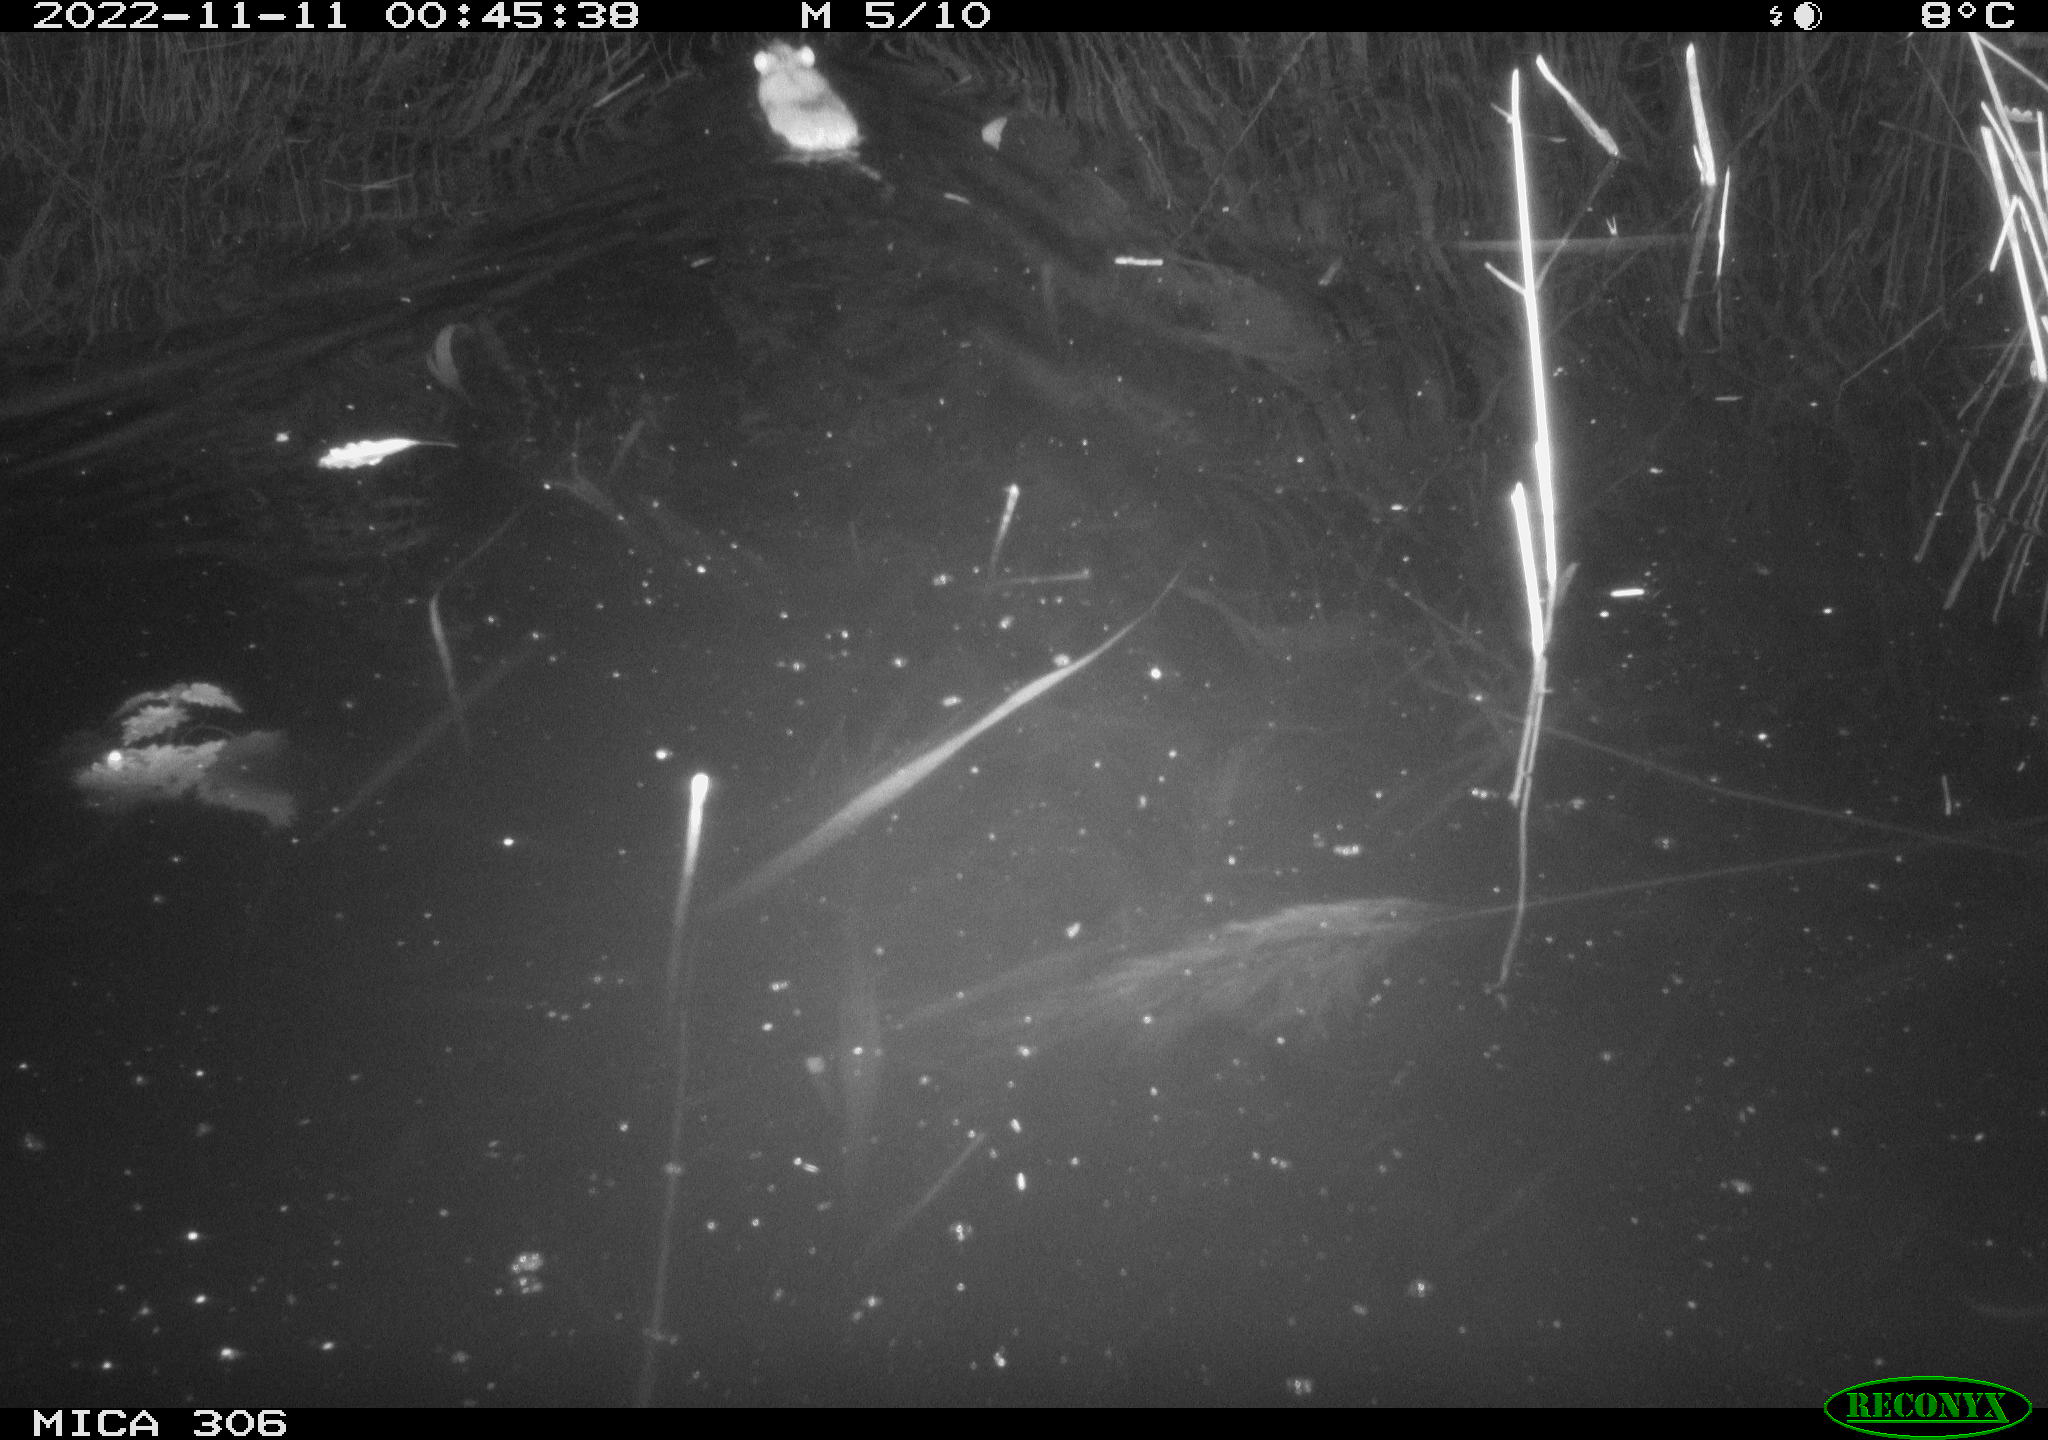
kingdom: Animalia
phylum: Chordata
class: Mammalia
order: Rodentia
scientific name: Rodentia
